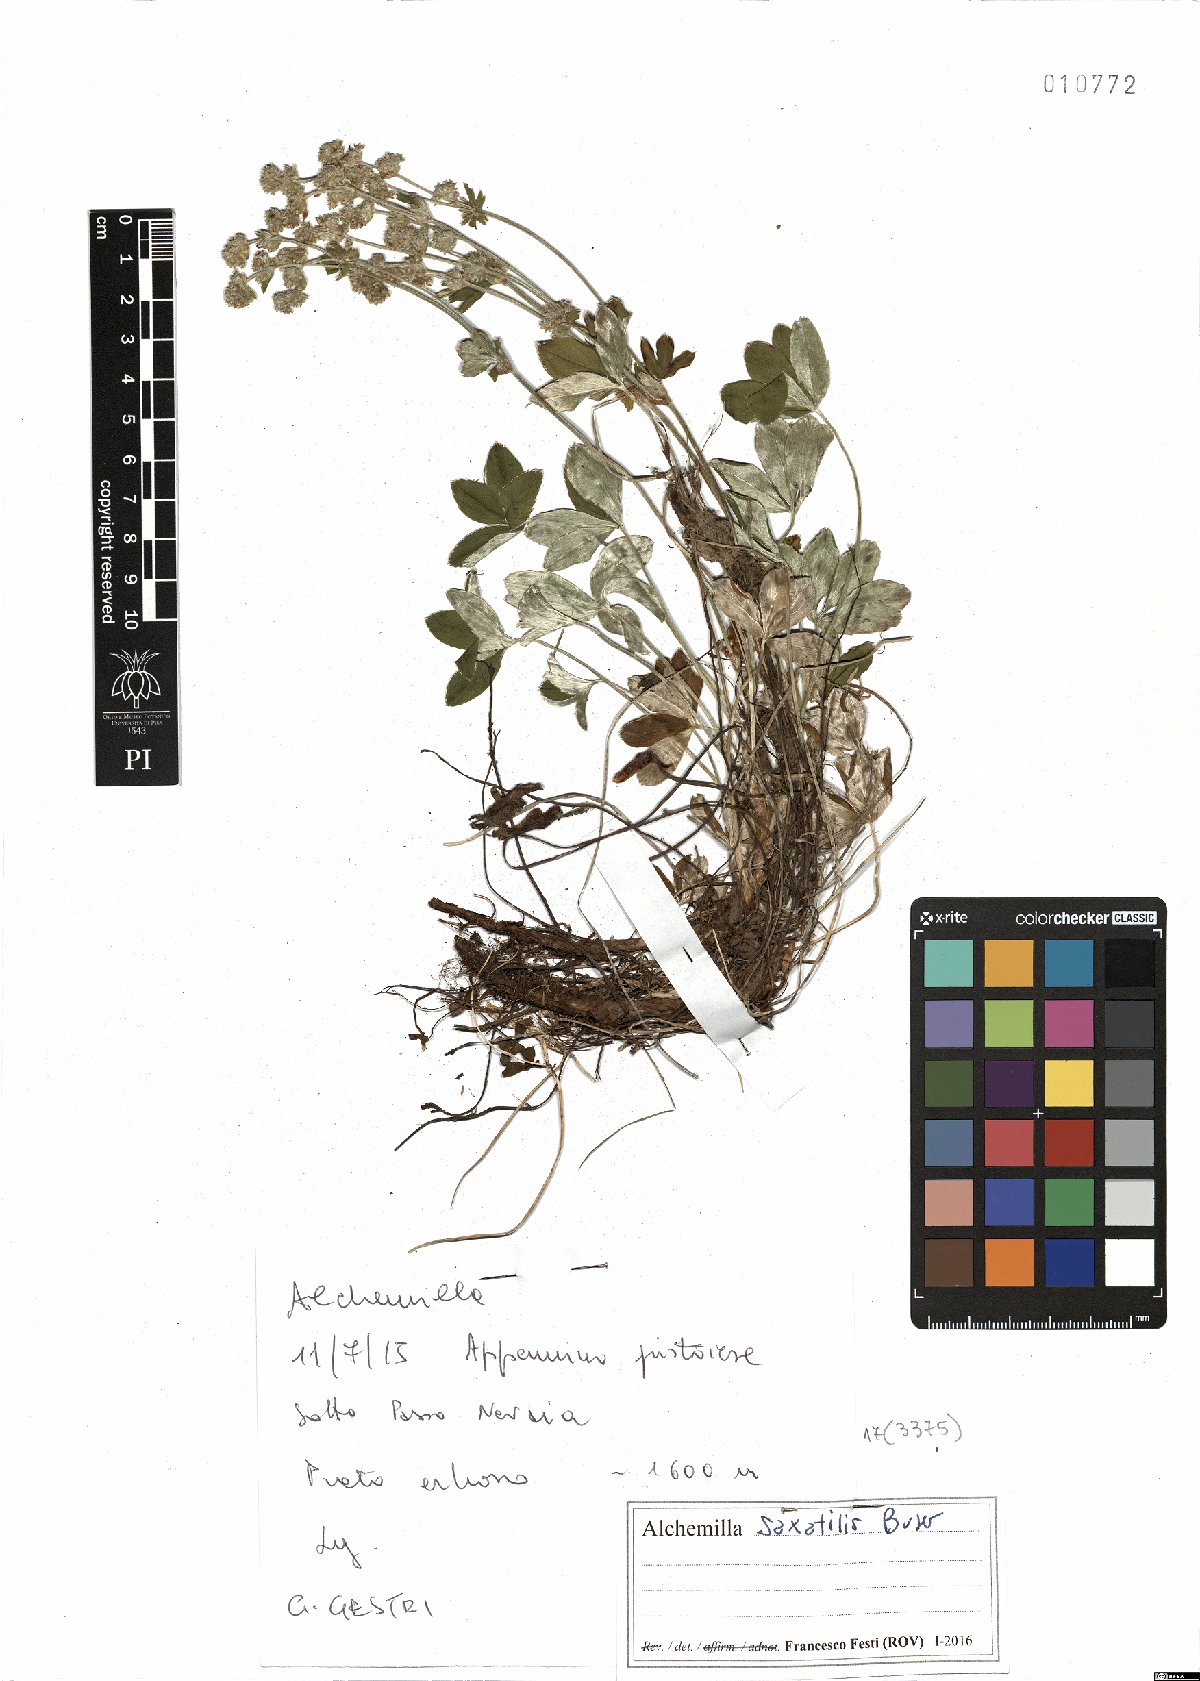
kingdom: Plantae
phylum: Tracheophyta
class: Magnoliopsida
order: Rosales
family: Rosaceae
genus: Alchemilla
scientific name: Alchemilla saxatilis
